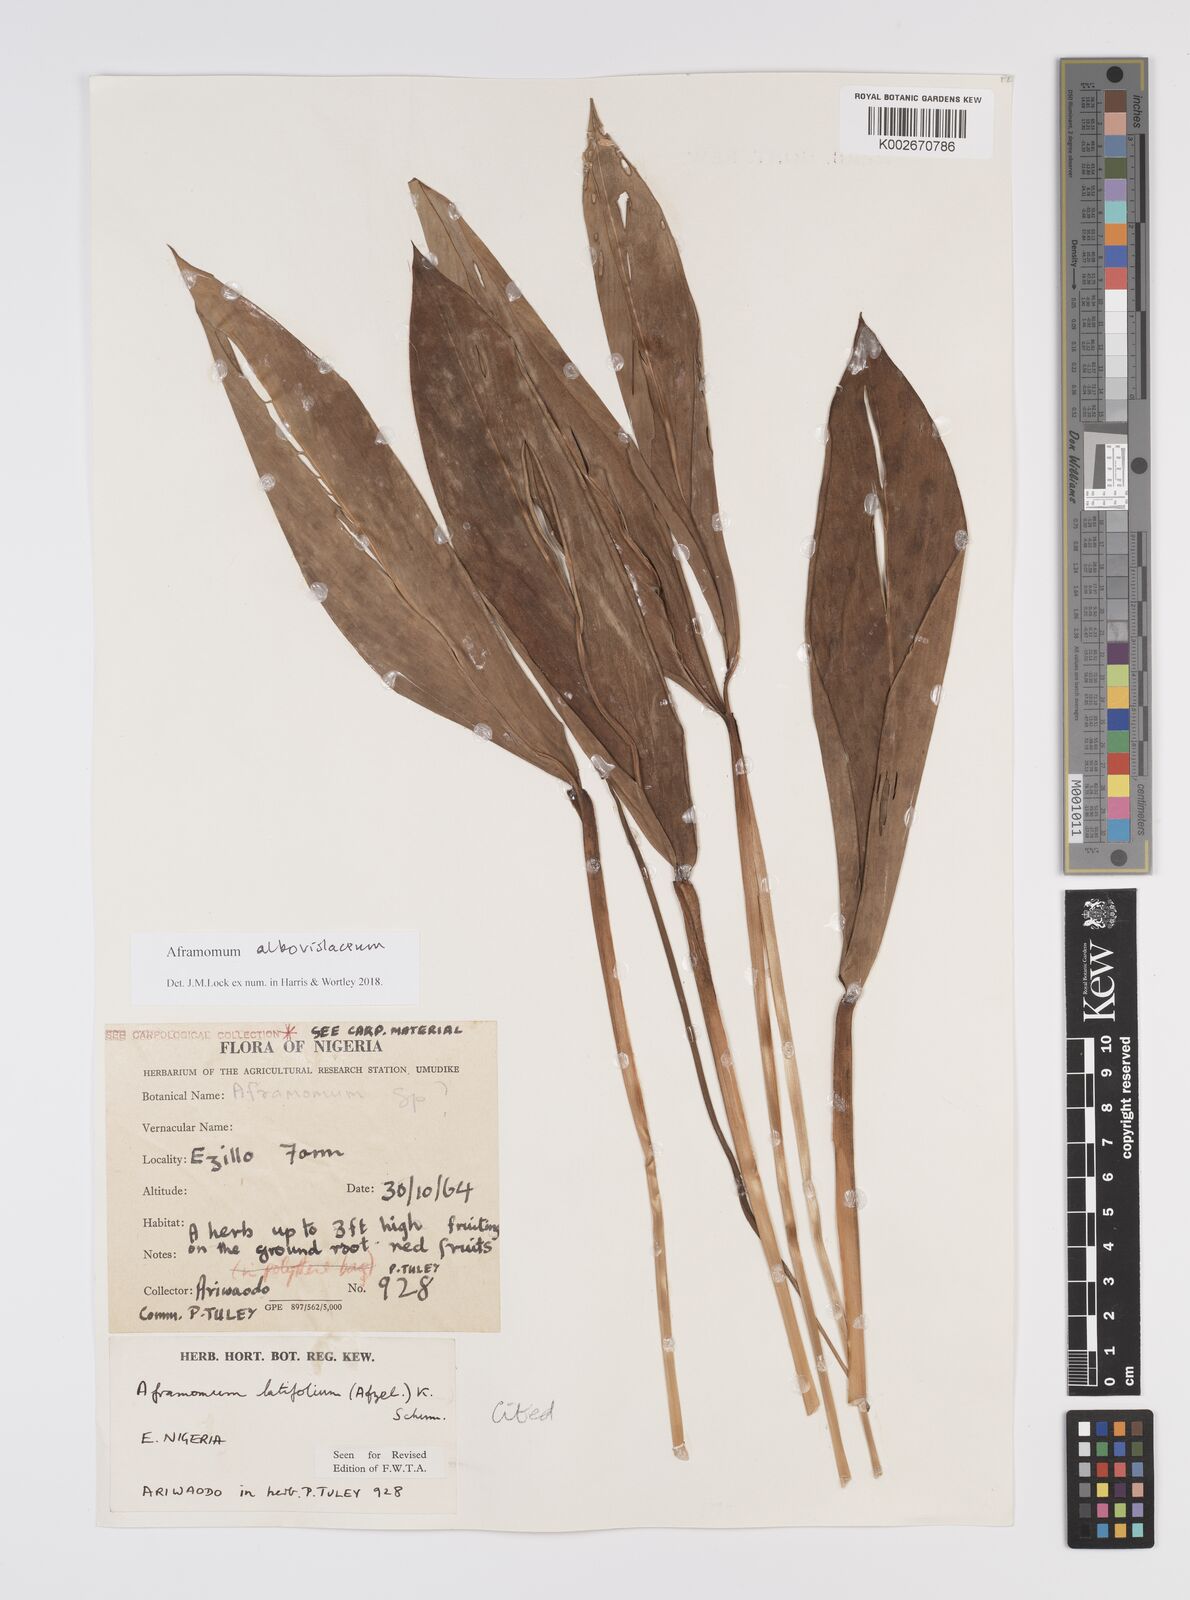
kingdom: Plantae
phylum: Tracheophyta
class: Liliopsida
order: Zingiberales
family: Zingiberaceae
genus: Aframomum
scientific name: Aframomum alboviolaceum
